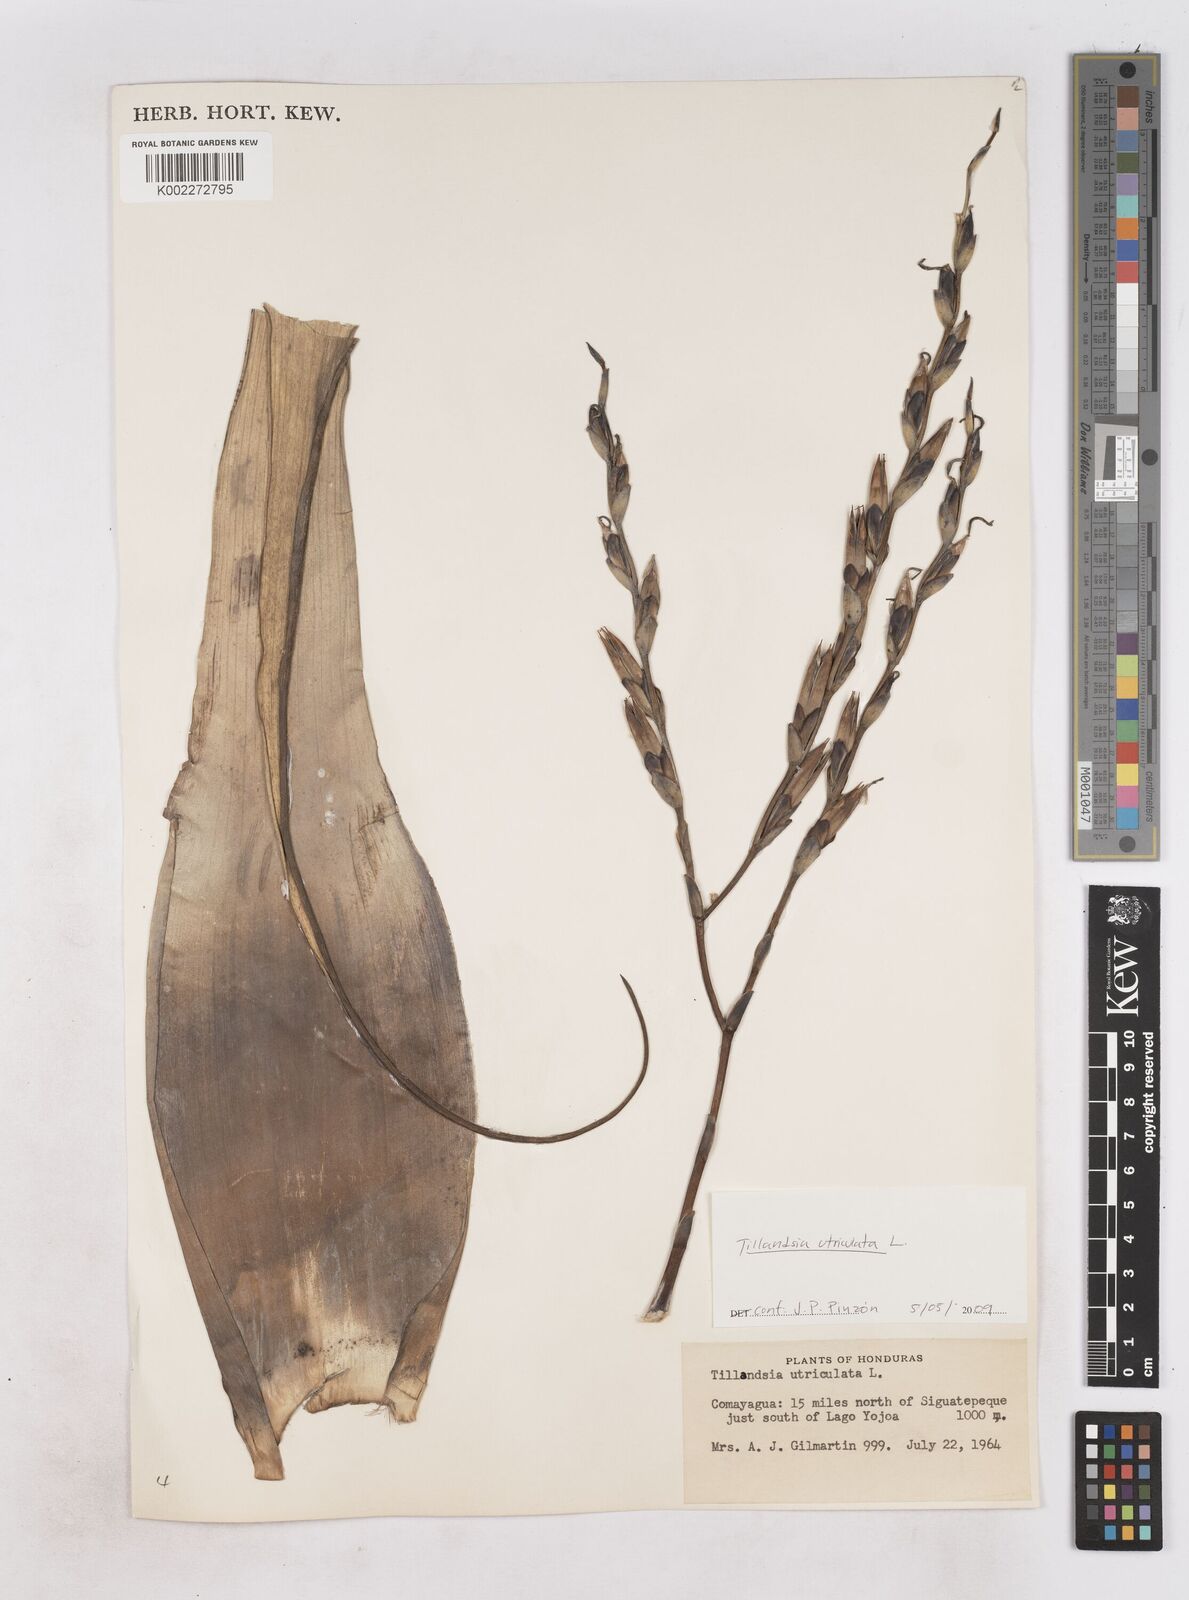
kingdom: Plantae
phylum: Tracheophyta
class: Liliopsida
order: Poales
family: Bromeliaceae
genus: Tillandsia
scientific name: Tillandsia utriculata
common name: Wild pine
